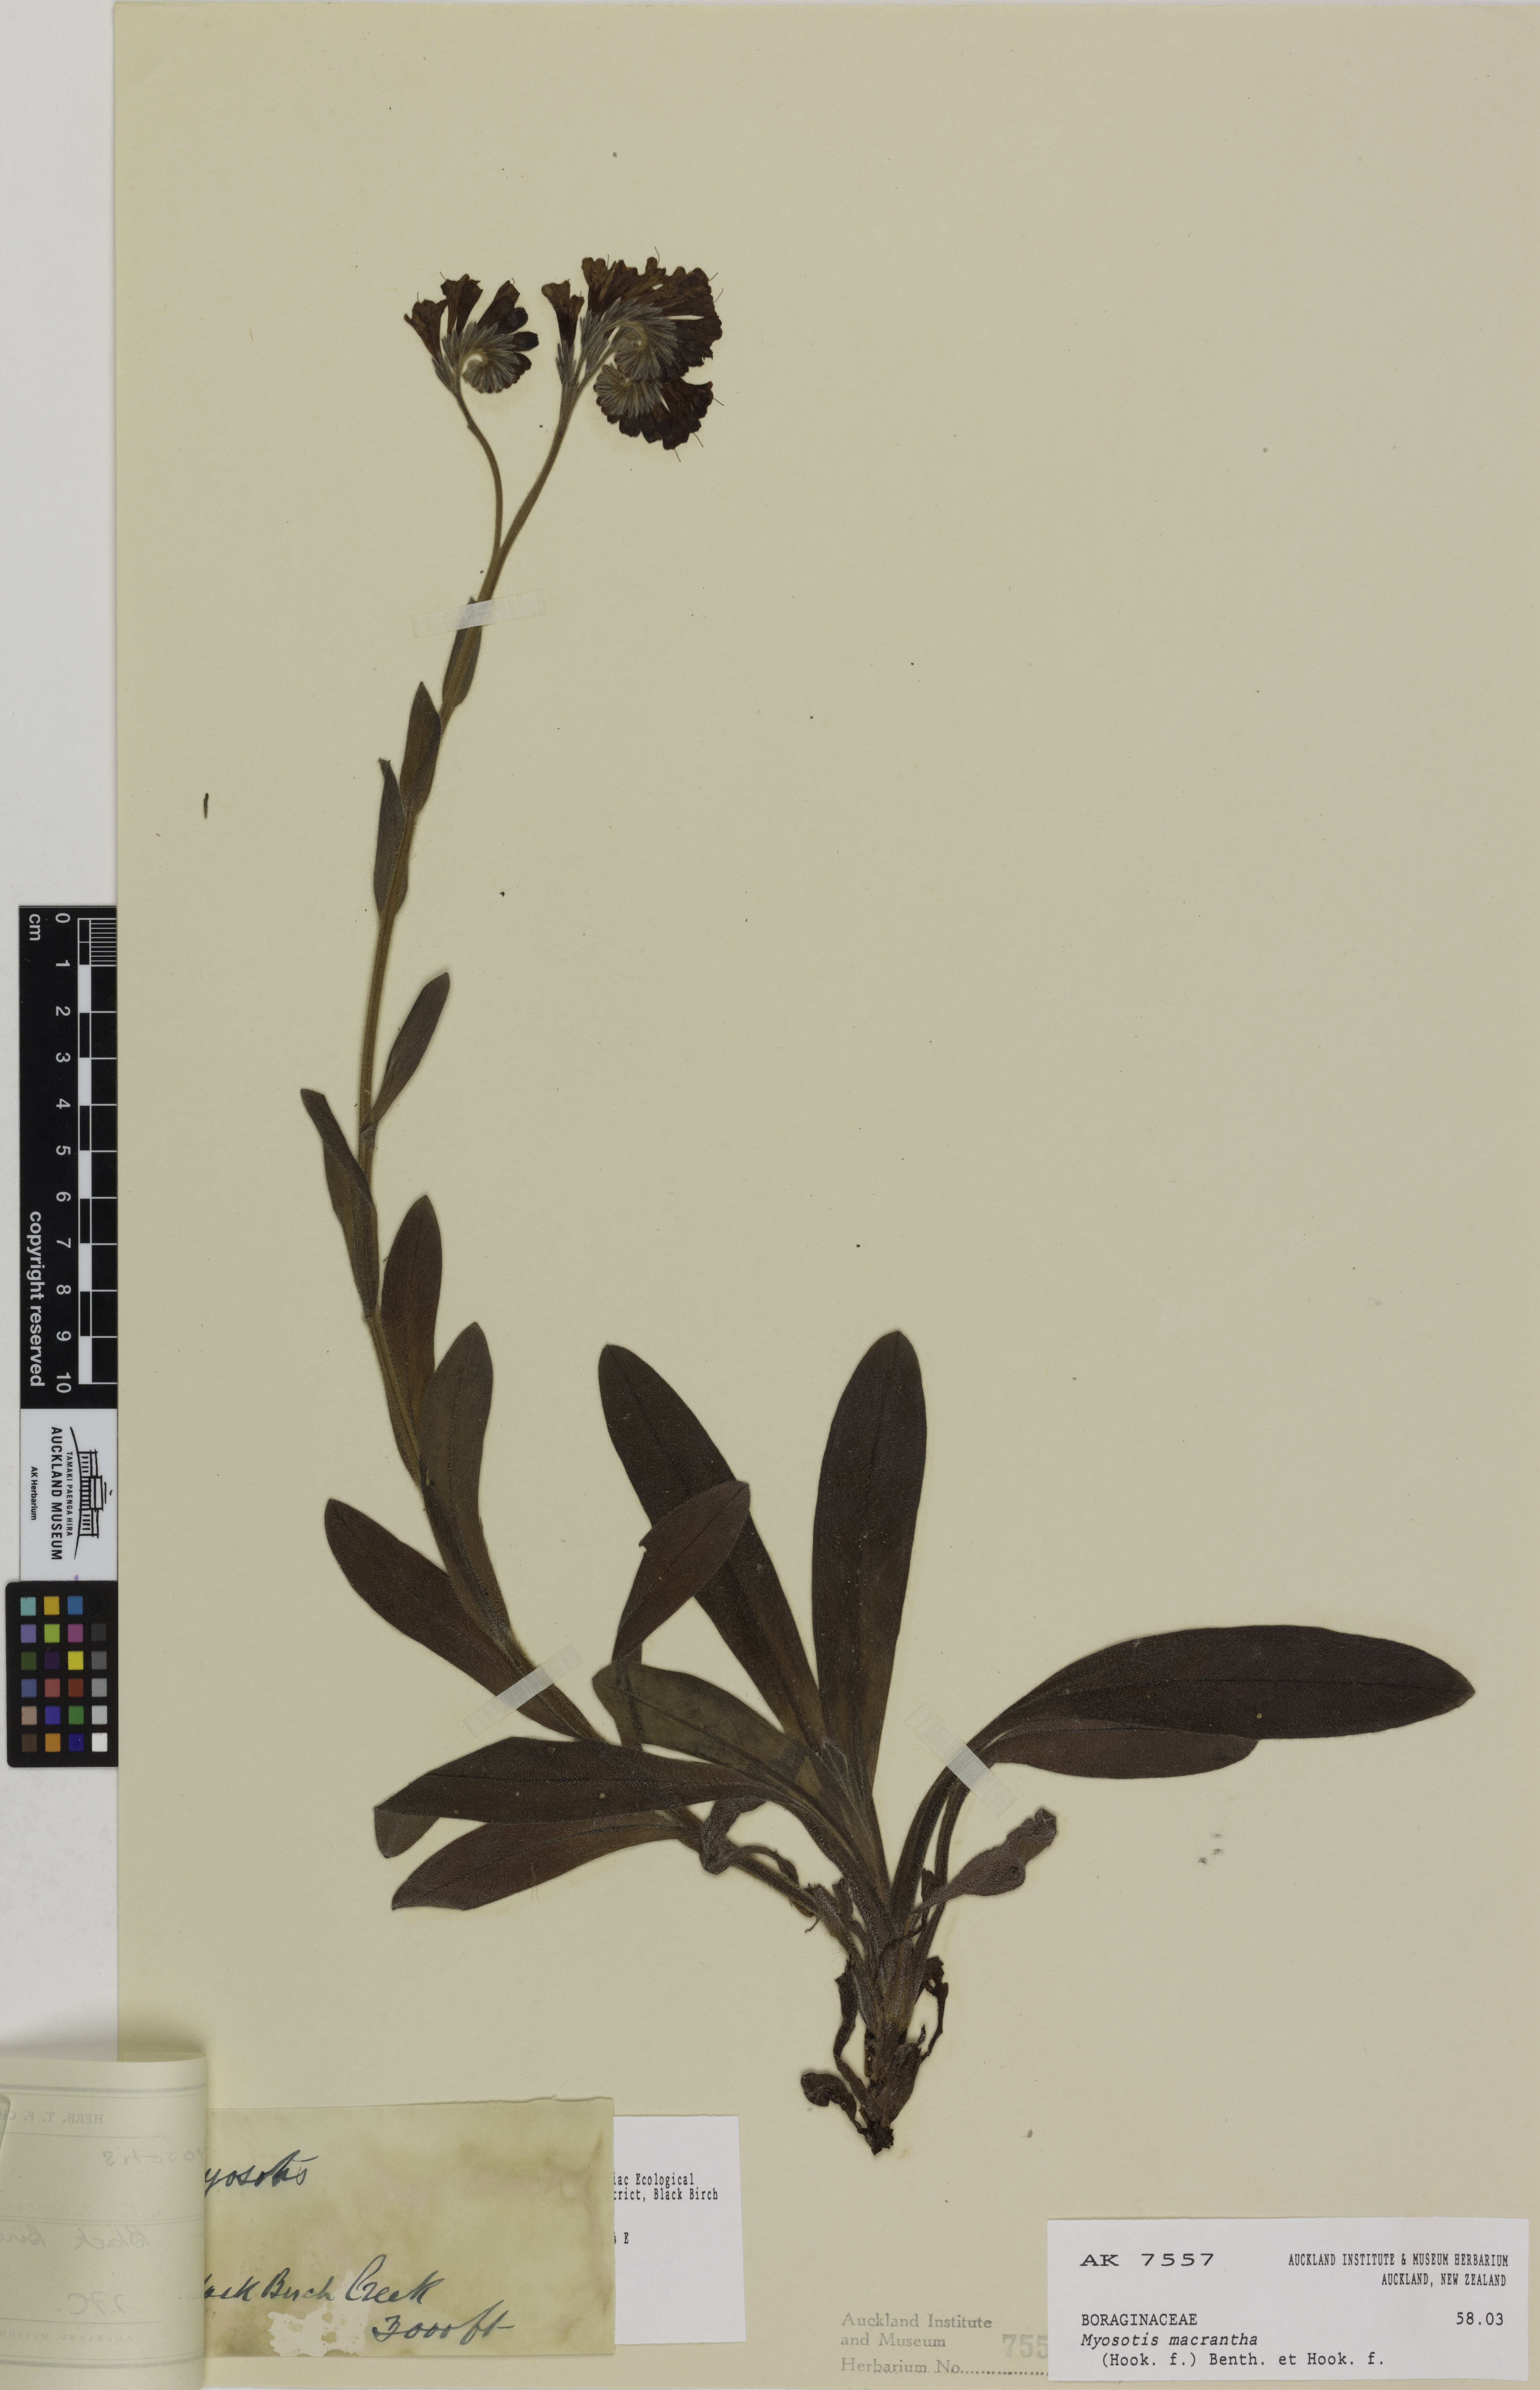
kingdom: Plantae
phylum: Tracheophyta
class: Magnoliopsida
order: Boraginales
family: Boraginaceae
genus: Myosotis
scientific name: Myosotis macrantha
